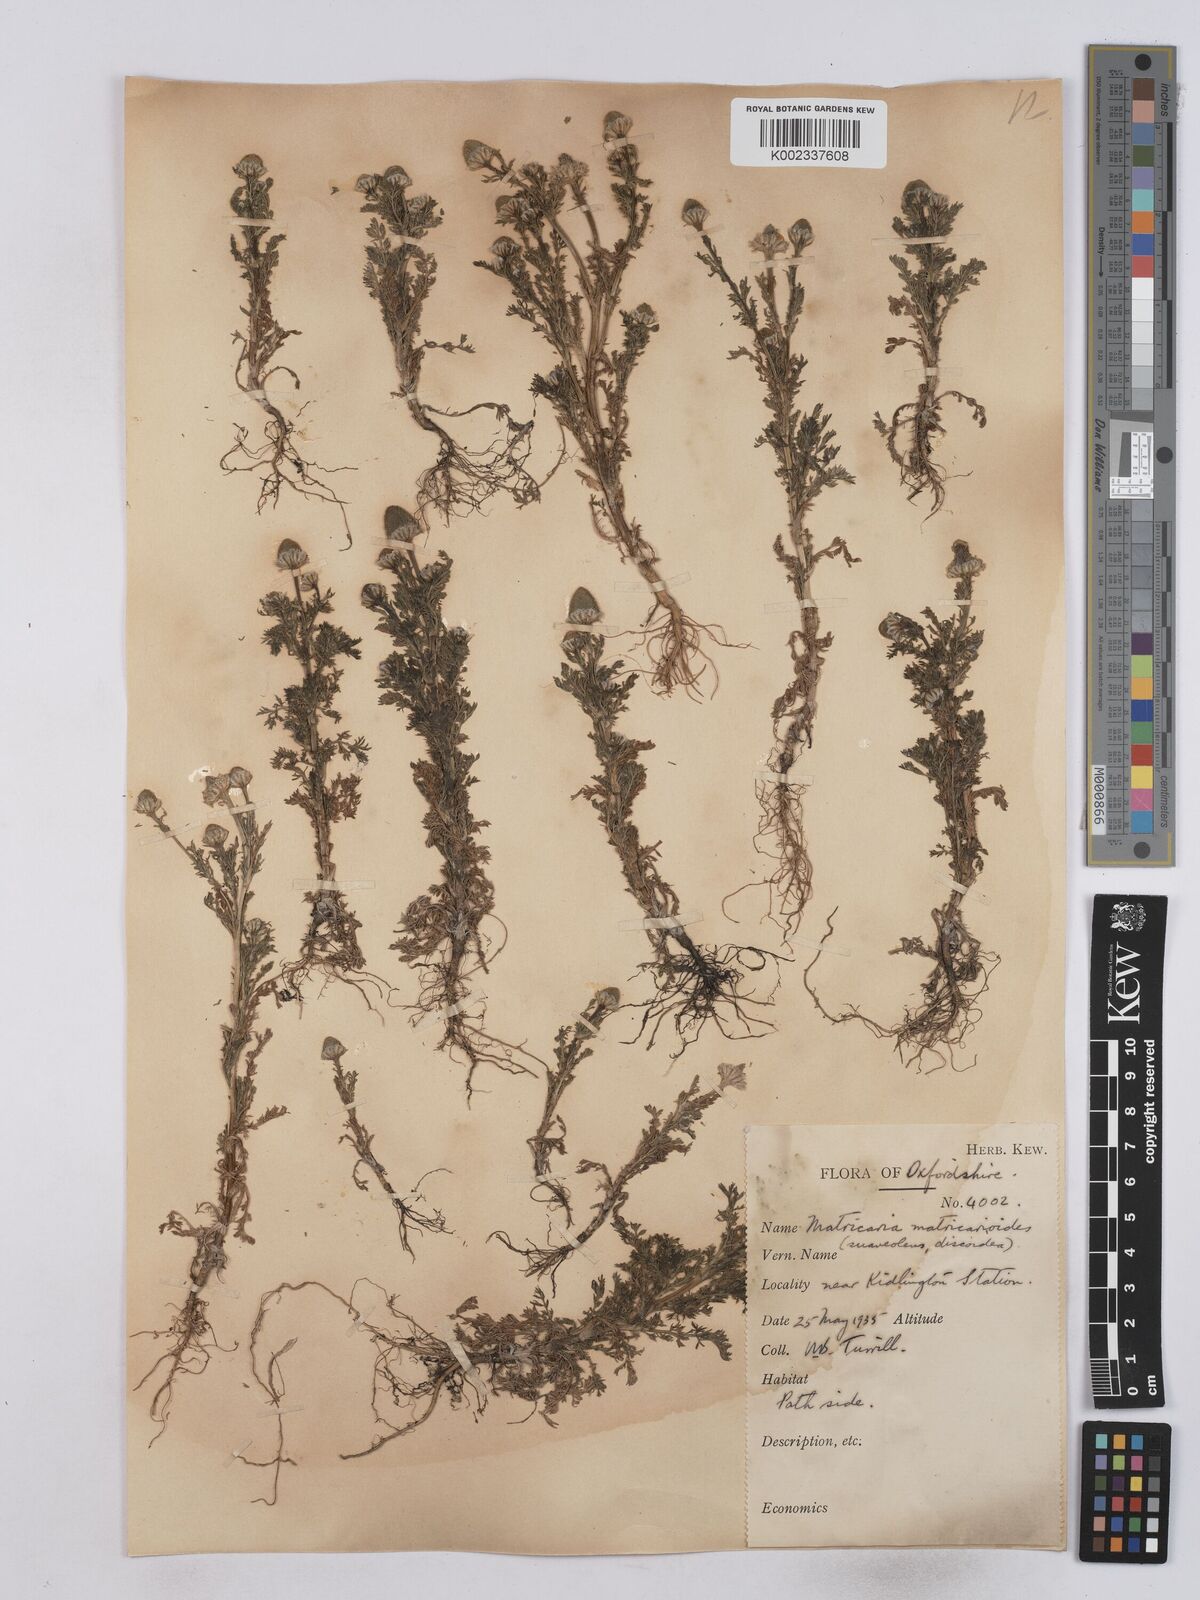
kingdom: Plantae
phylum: Tracheophyta
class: Magnoliopsida
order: Asterales
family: Asteraceae
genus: Matricaria
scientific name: Matricaria discoidea
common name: Disc mayweed
